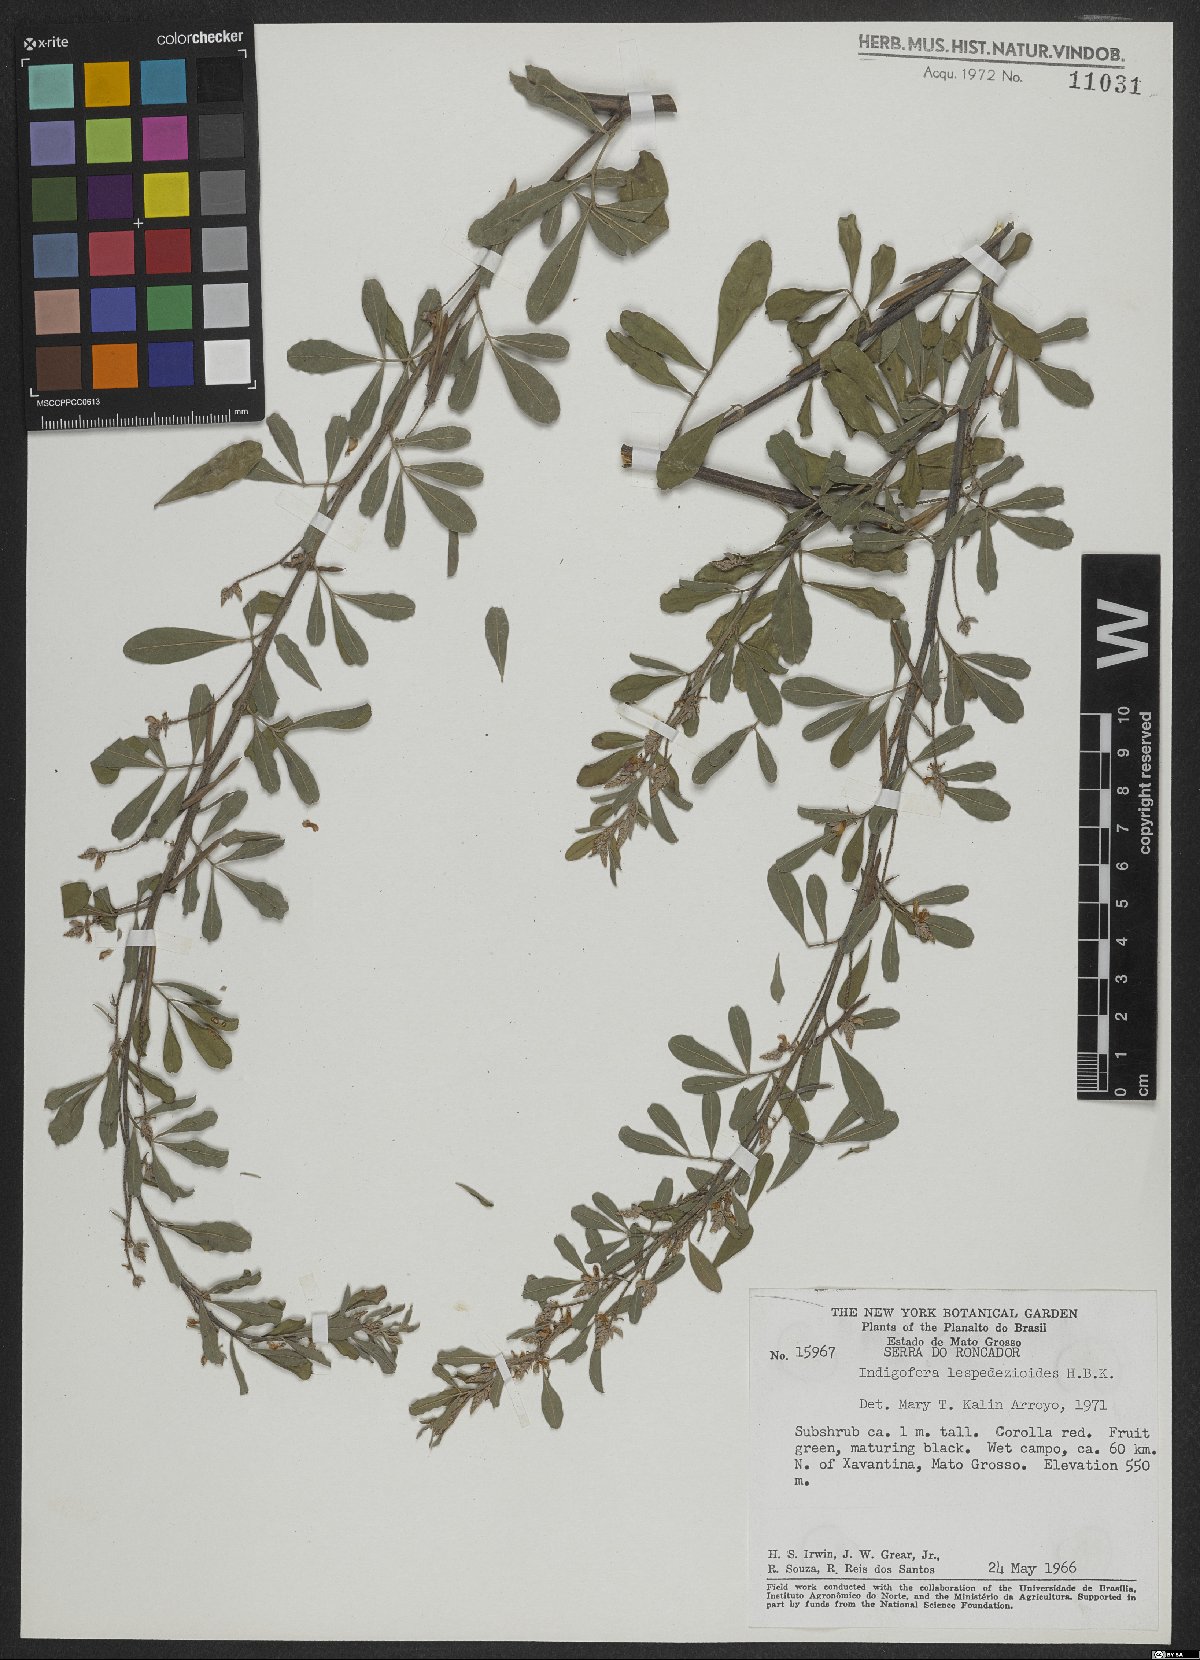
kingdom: Plantae
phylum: Tracheophyta
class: Magnoliopsida
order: Fabales
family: Fabaceae
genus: Indigofera
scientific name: Indigofera cassioides
